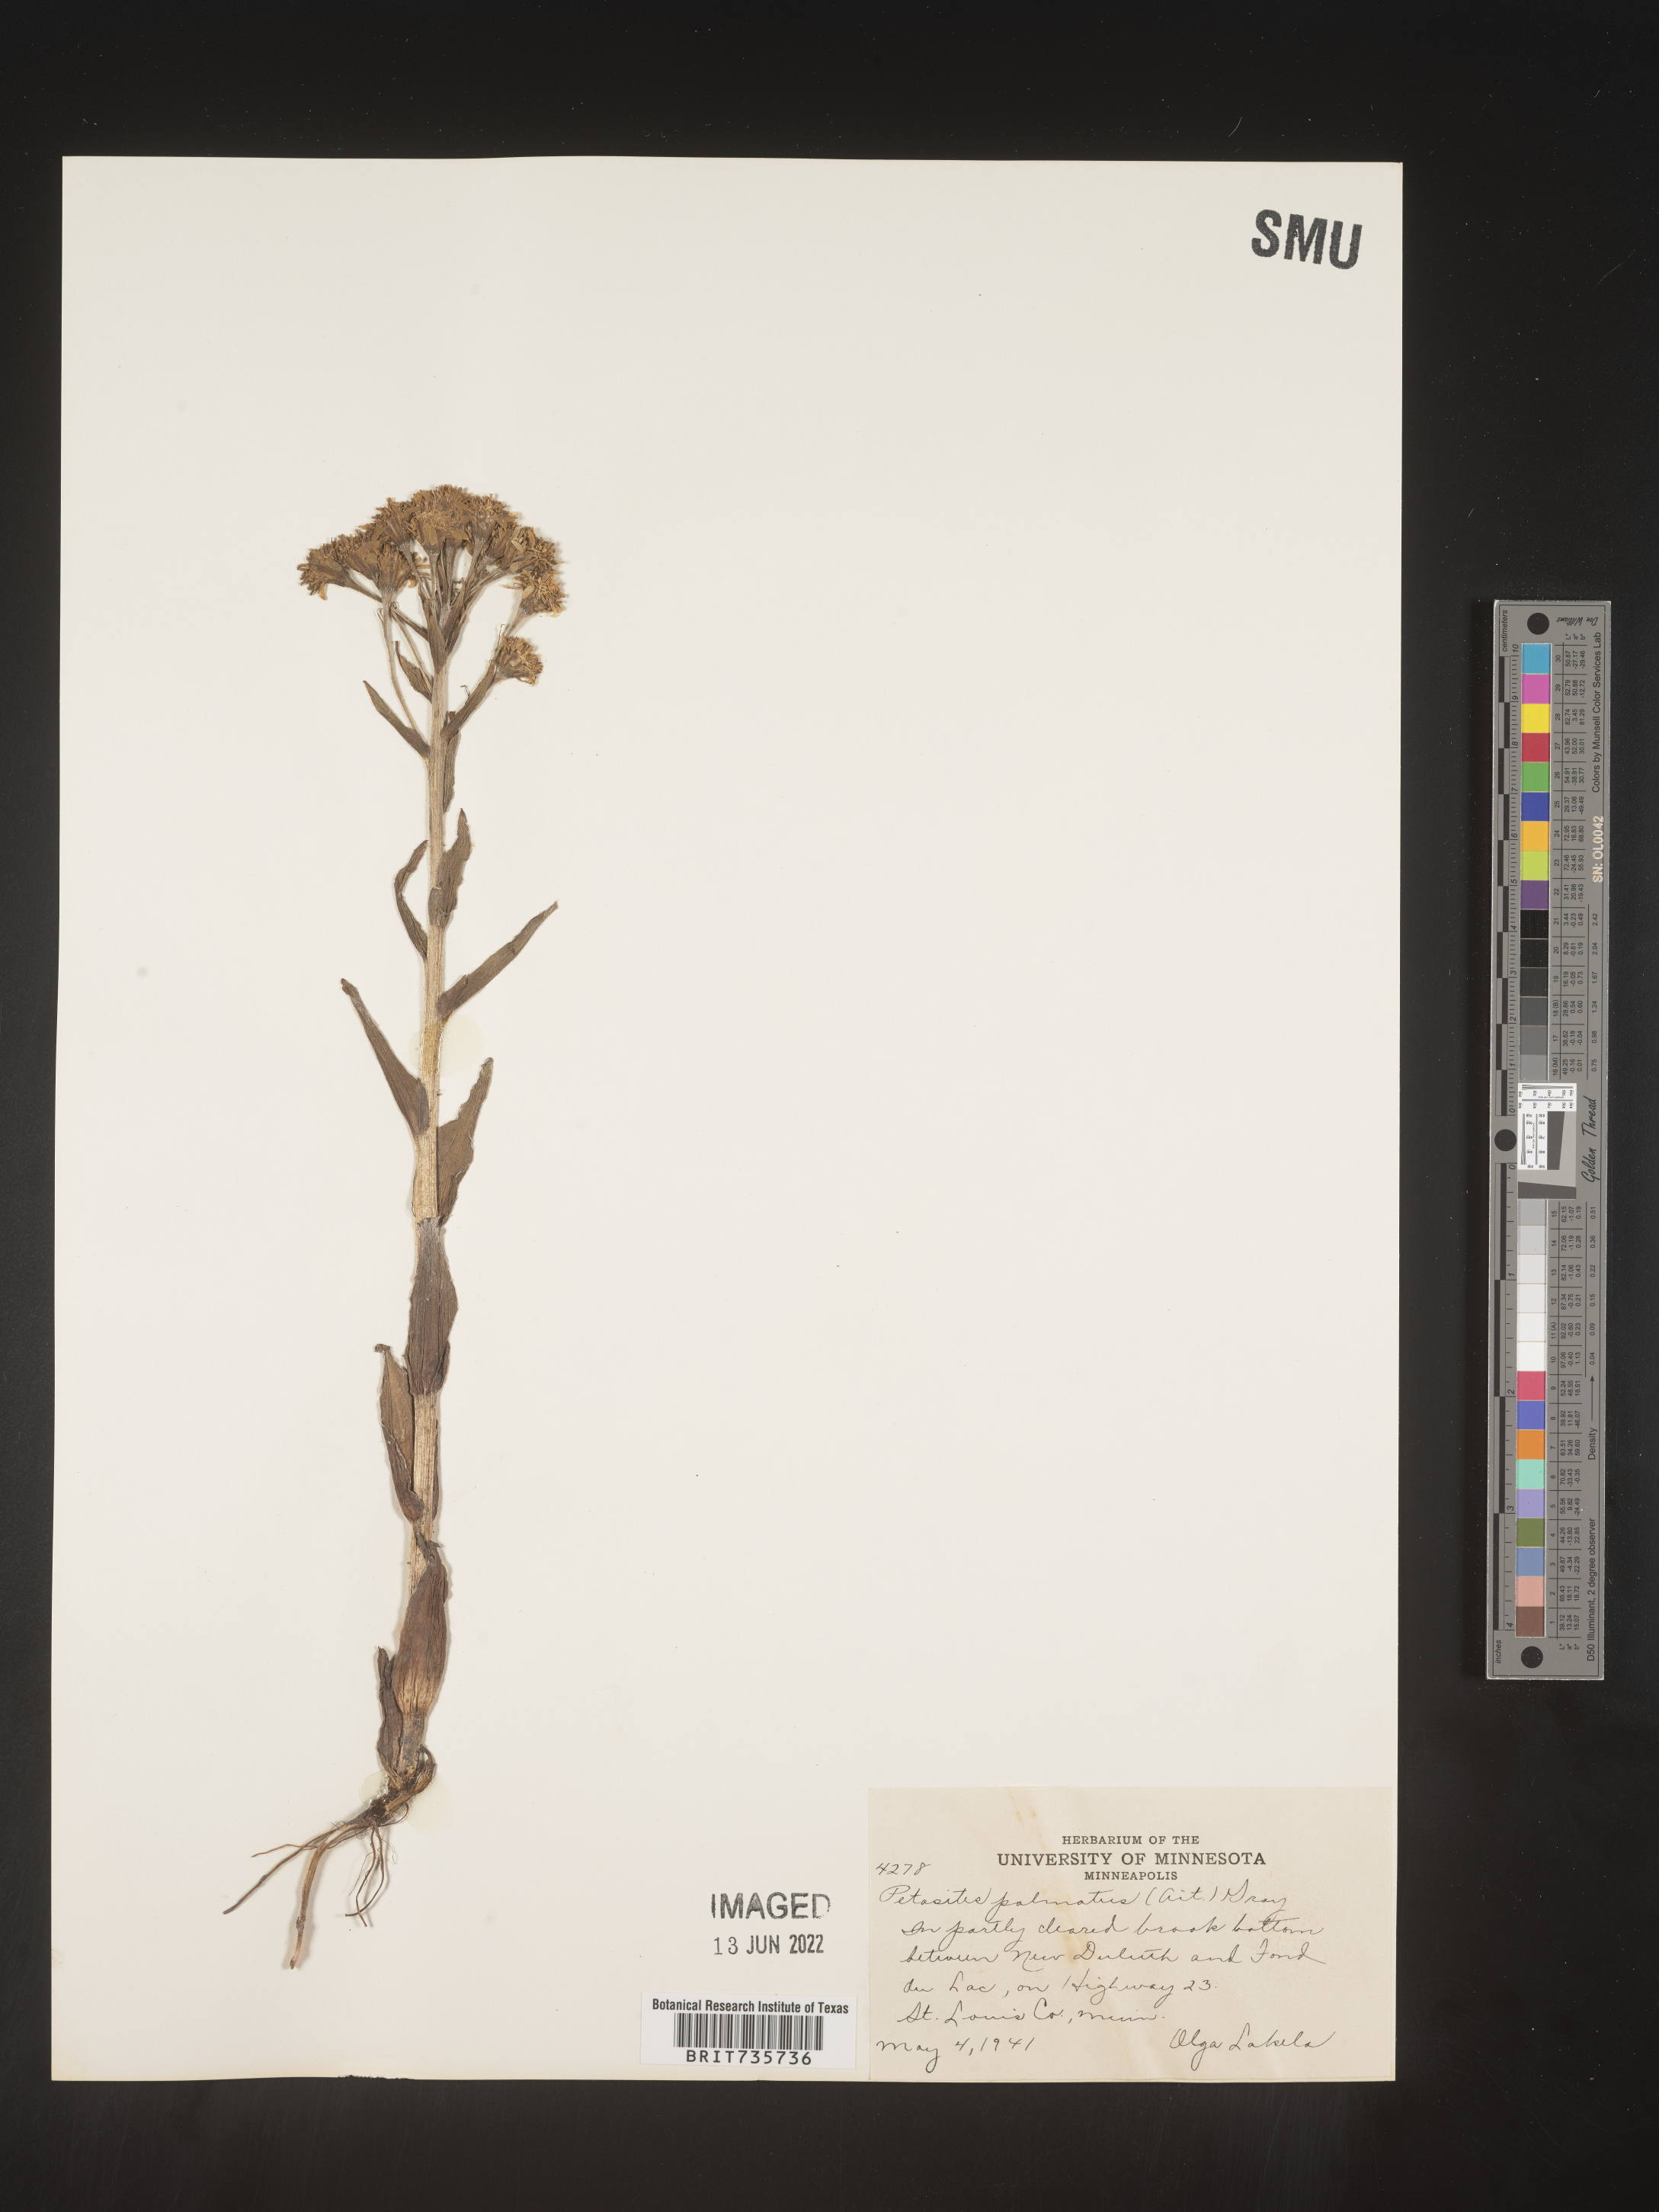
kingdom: Plantae
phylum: Tracheophyta
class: Magnoliopsida
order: Asterales
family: Asteraceae
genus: Petasites
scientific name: Petasites frigidus
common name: Arctic butterbur
